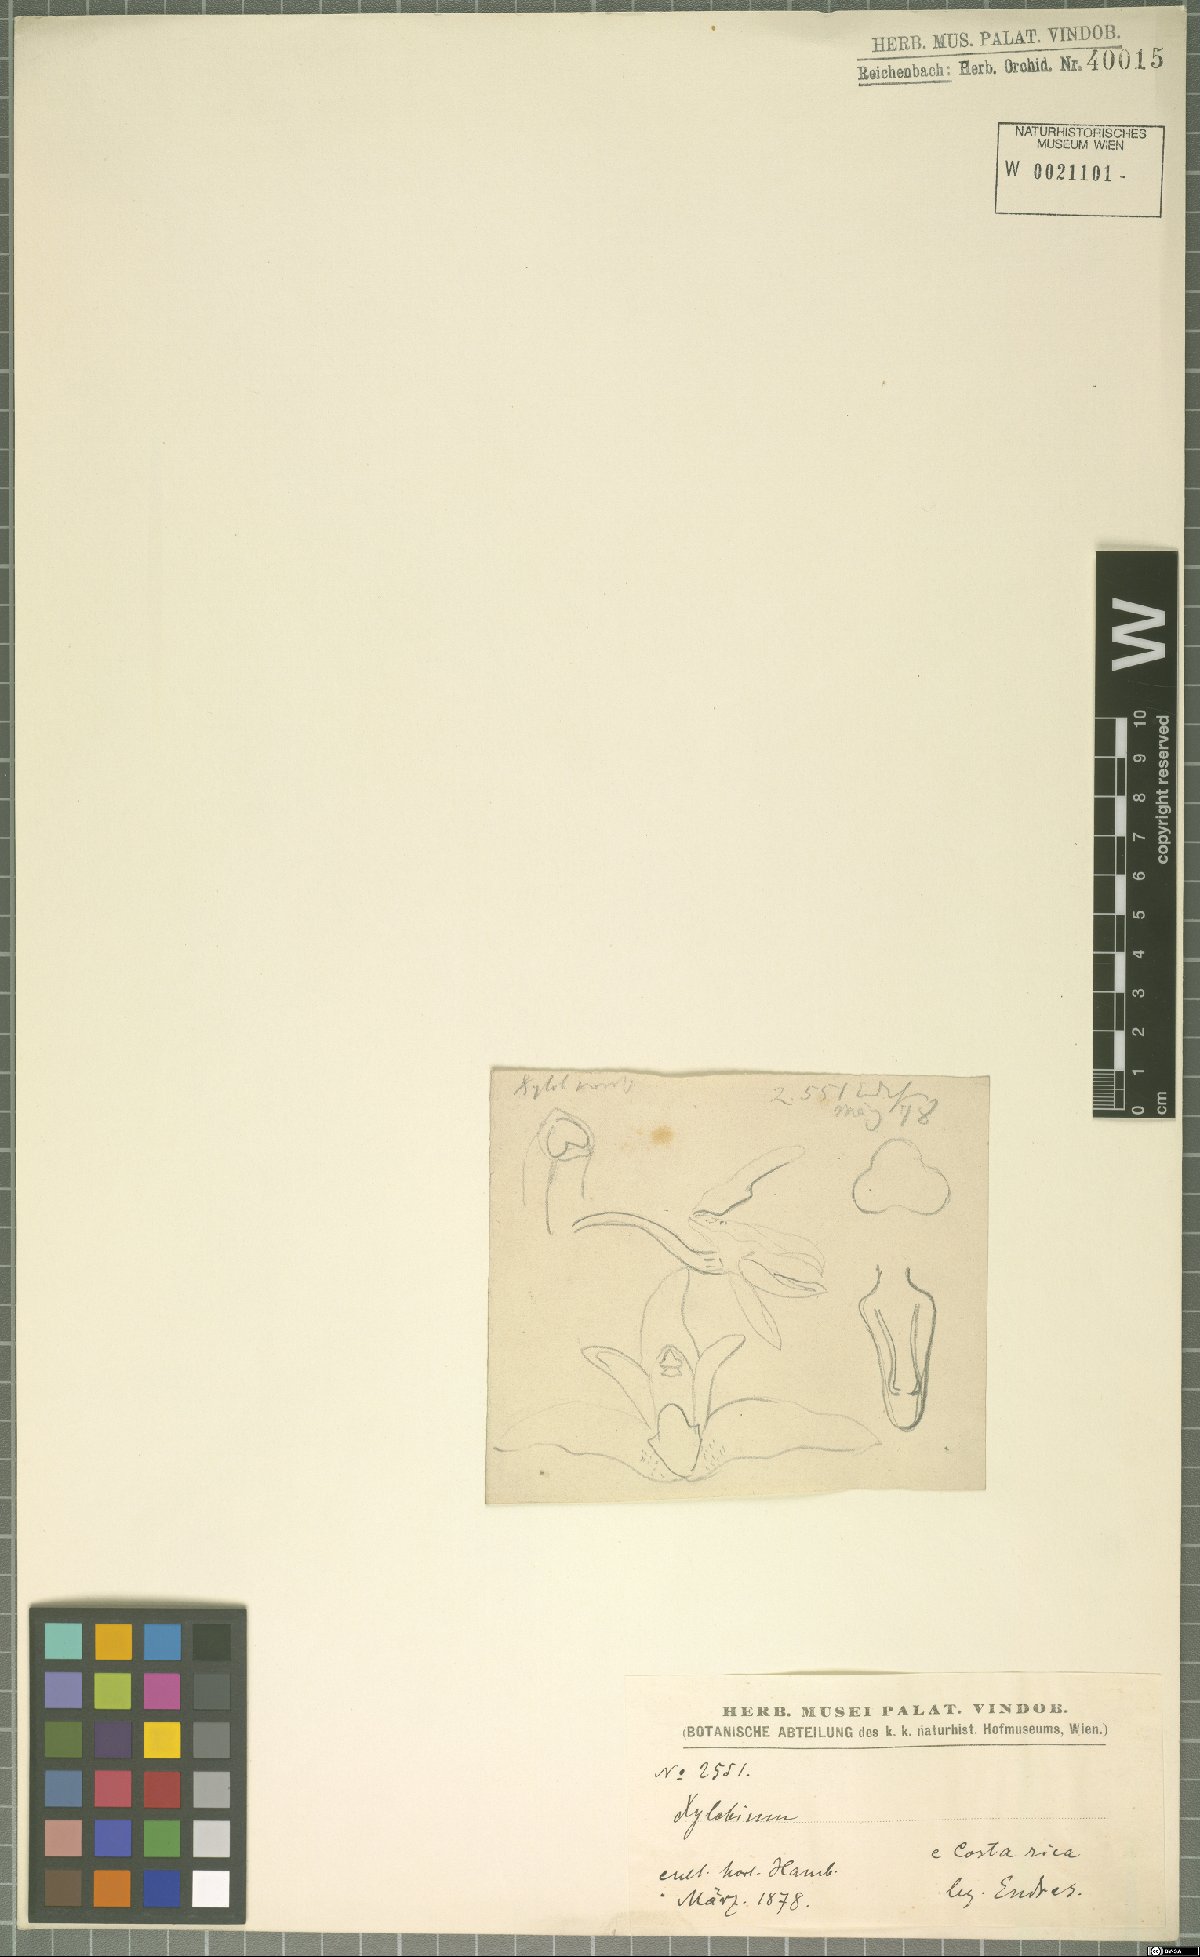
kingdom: Plantae
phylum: Tracheophyta
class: Liliopsida
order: Asparagales
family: Orchidaceae
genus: Xylobium
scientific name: Xylobium
